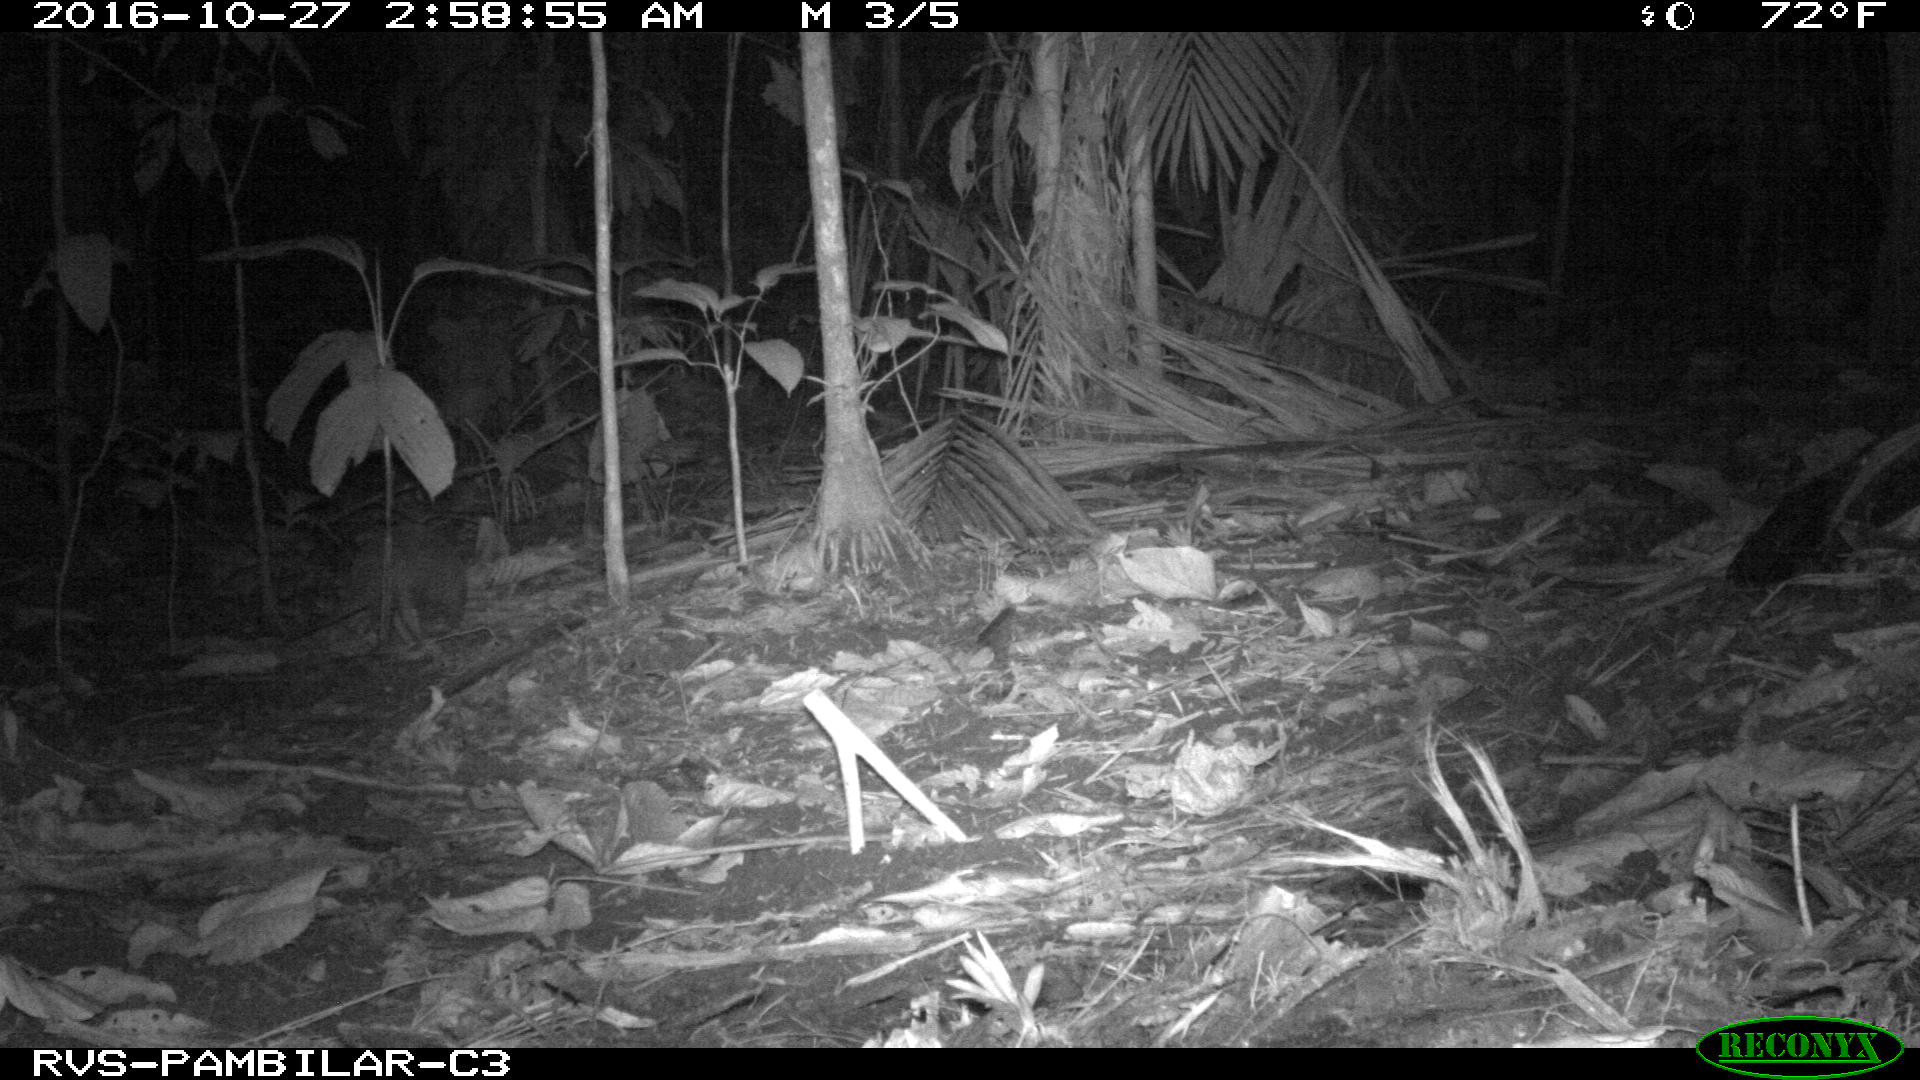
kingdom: Animalia
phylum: Chordata
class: Mammalia
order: Cingulata
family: Dasypodidae
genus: Dasypus
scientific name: Dasypus novemcinctus
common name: Nine-banded armadillo
